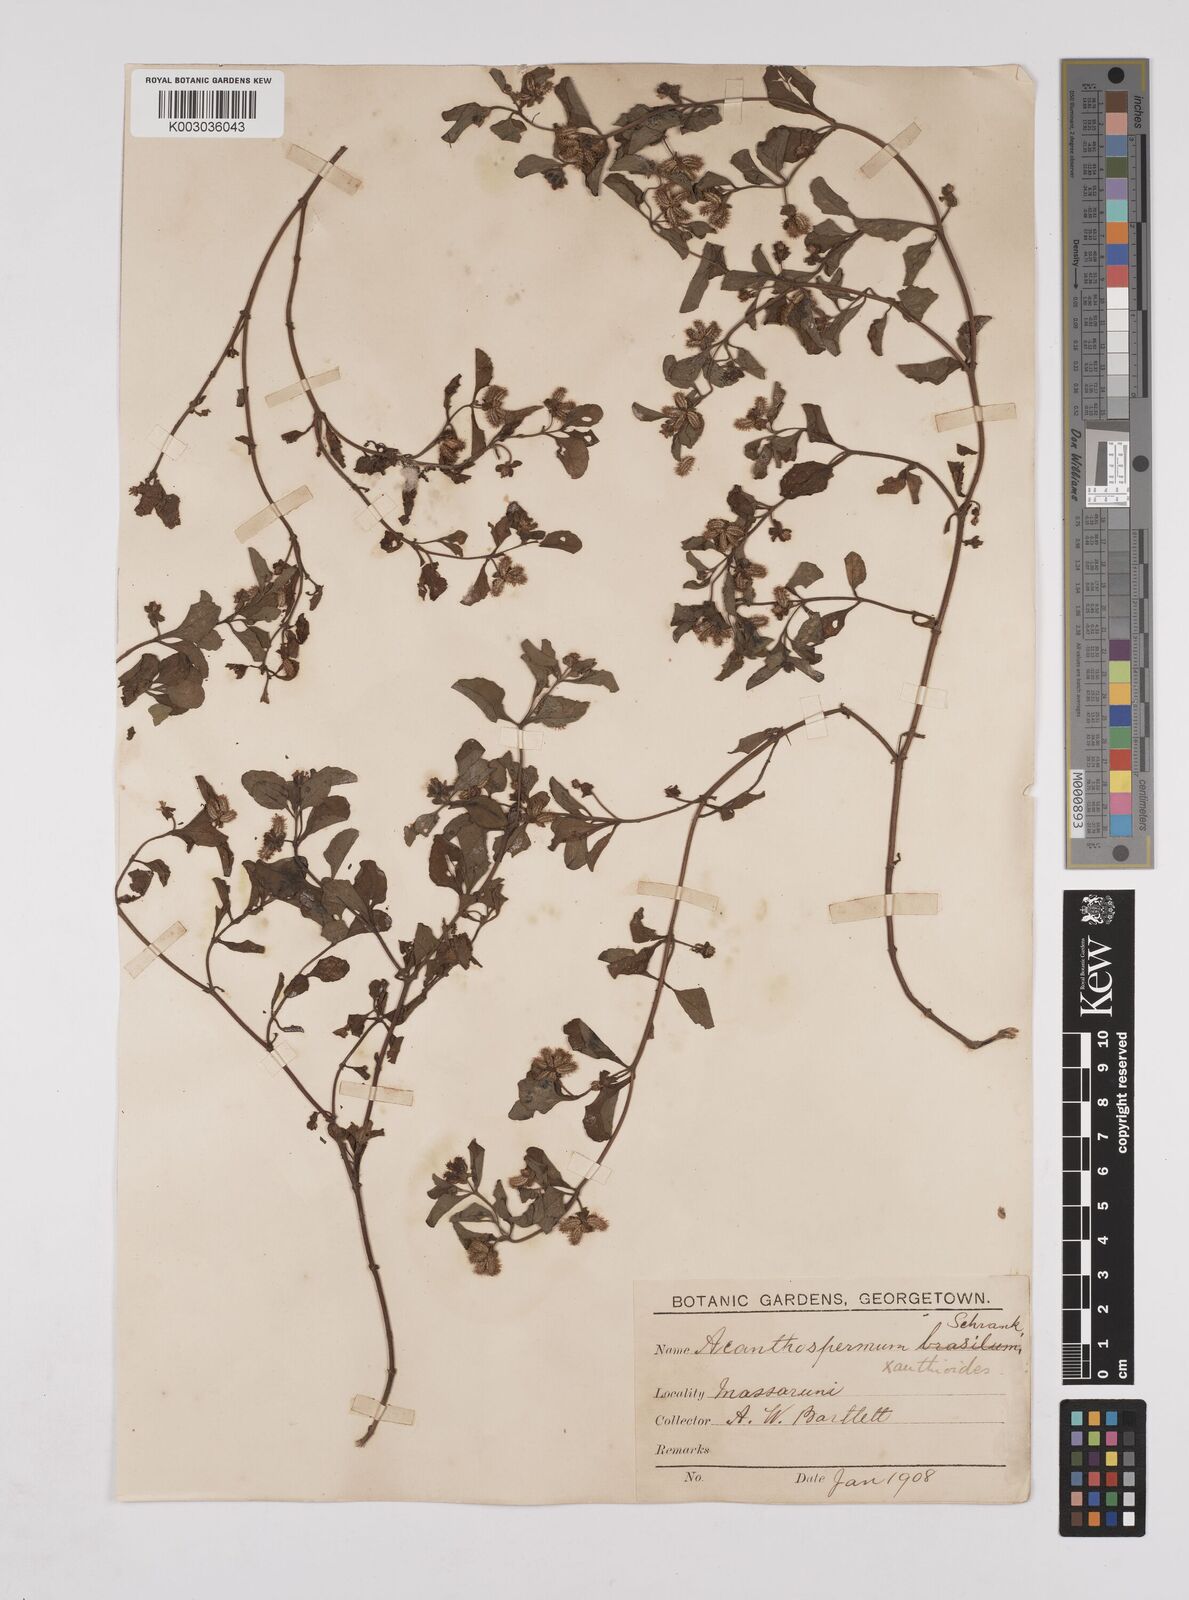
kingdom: Plantae
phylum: Tracheophyta
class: Magnoliopsida
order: Asterales
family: Asteraceae
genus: Acanthospermum
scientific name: Acanthospermum australe
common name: Paraguayan starbur
